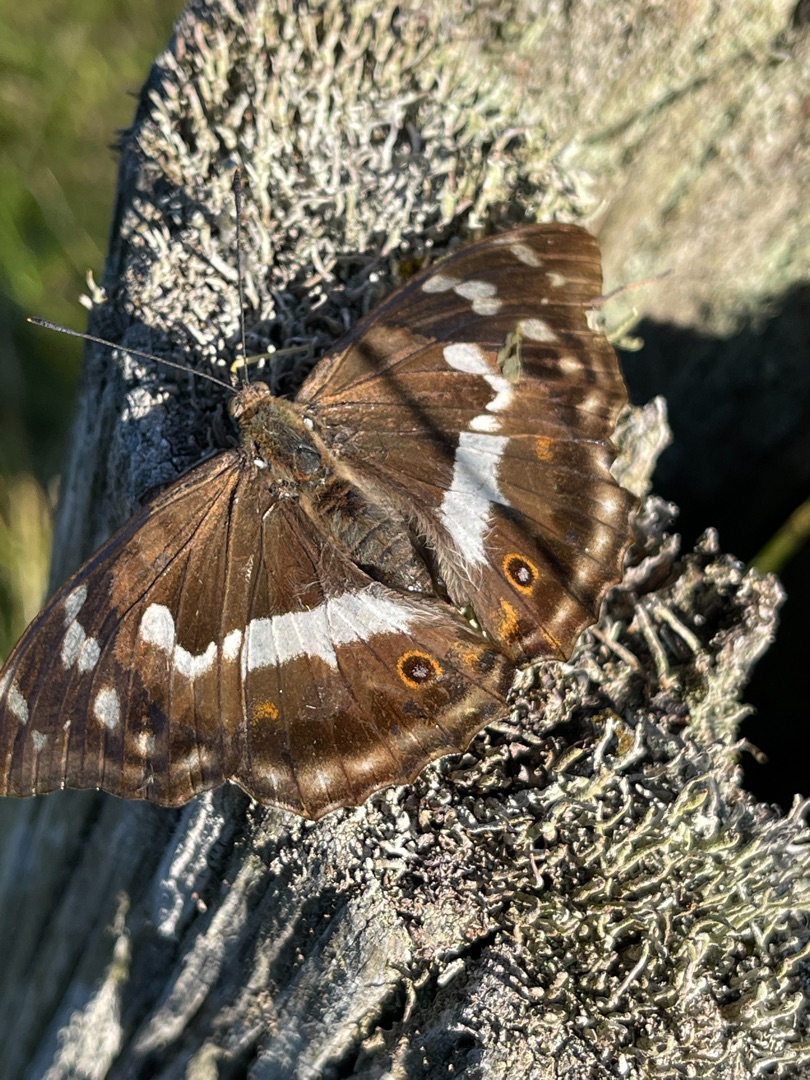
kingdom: Animalia
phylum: Arthropoda
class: Insecta
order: Lepidoptera
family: Nymphalidae
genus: Apatura
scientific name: Apatura iris
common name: Iris
